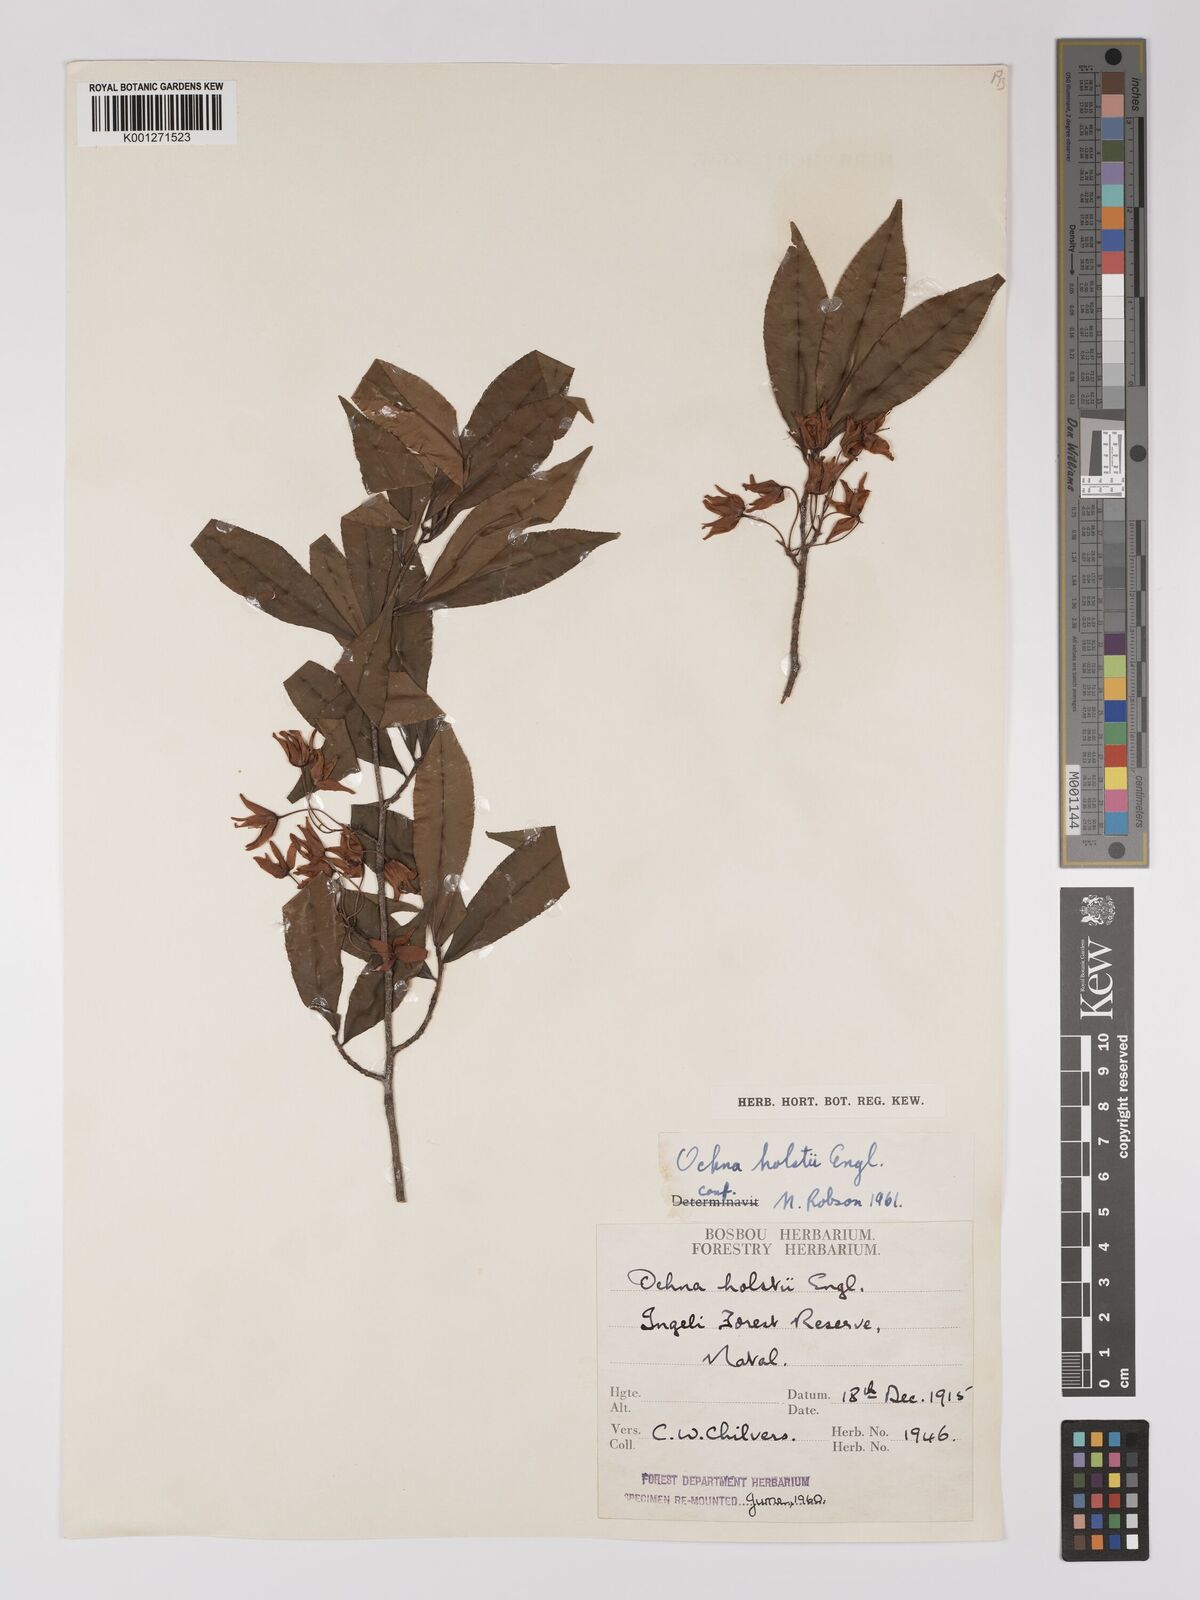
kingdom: Plantae
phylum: Tracheophyta
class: Magnoliopsida
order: Malpighiales
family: Ochnaceae
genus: Ochna
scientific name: Ochna holstii
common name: Red ironwood
